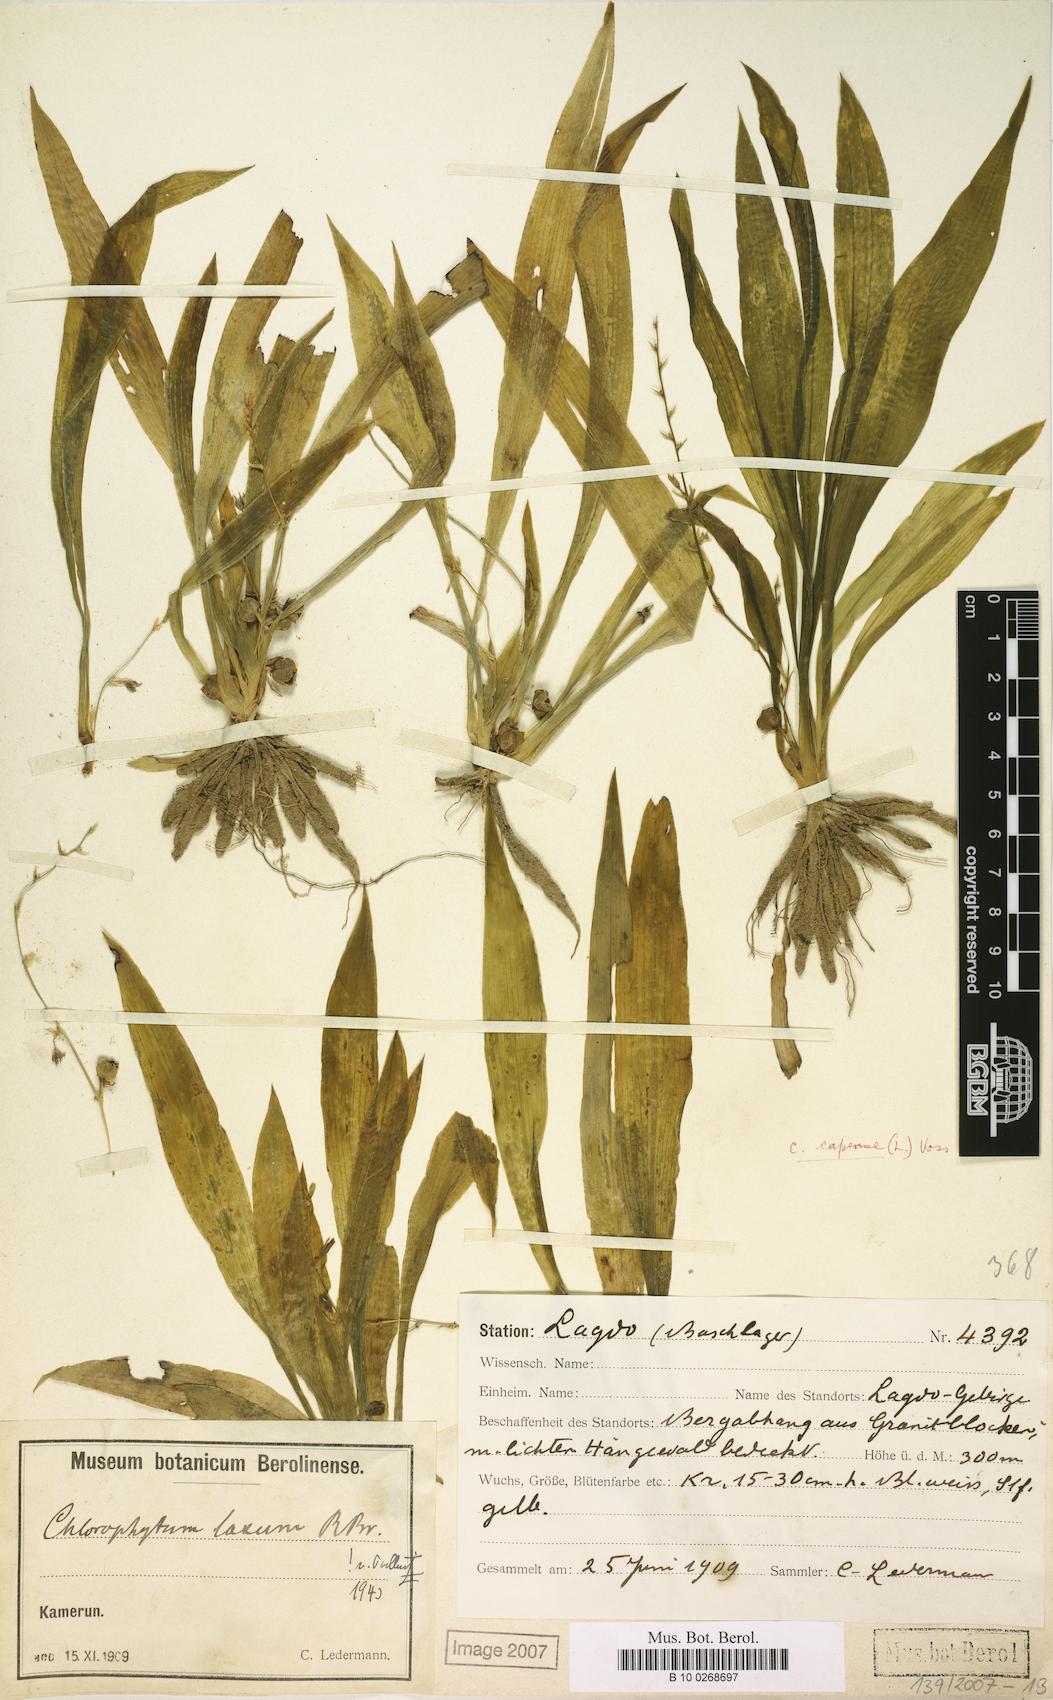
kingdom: Plantae
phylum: Tracheophyta
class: Liliopsida
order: Asparagales
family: Asparagaceae
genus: Chlorophytum
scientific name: Chlorophytum debile
